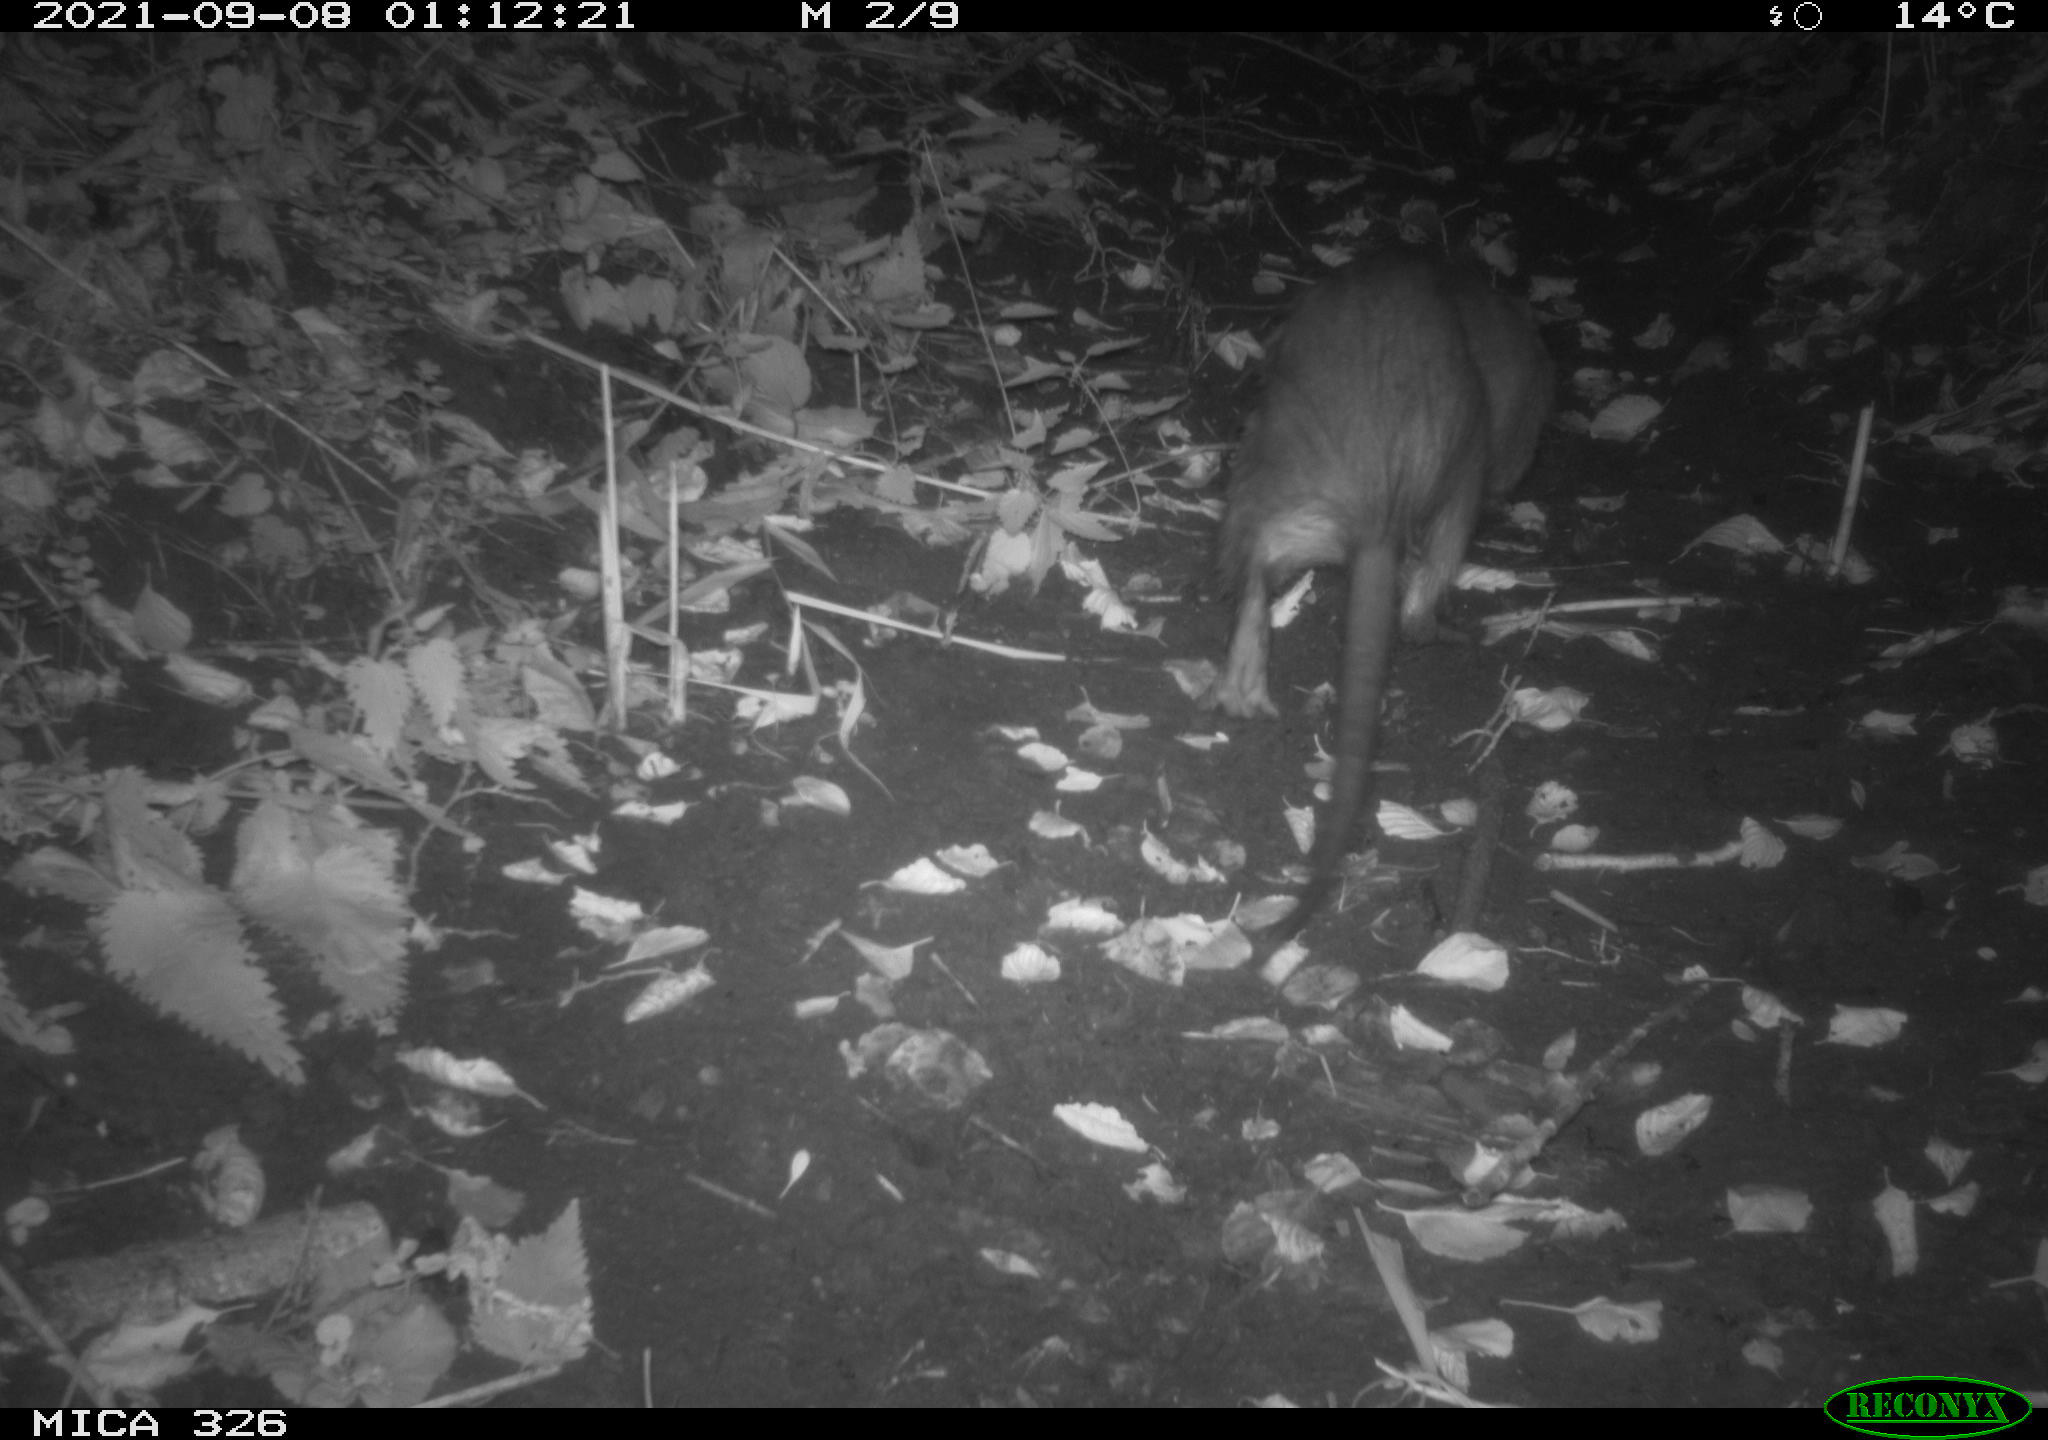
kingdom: Animalia
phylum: Chordata
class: Mammalia
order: Rodentia
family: Myocastoridae
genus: Myocastor
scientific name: Myocastor coypus
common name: Coypu
